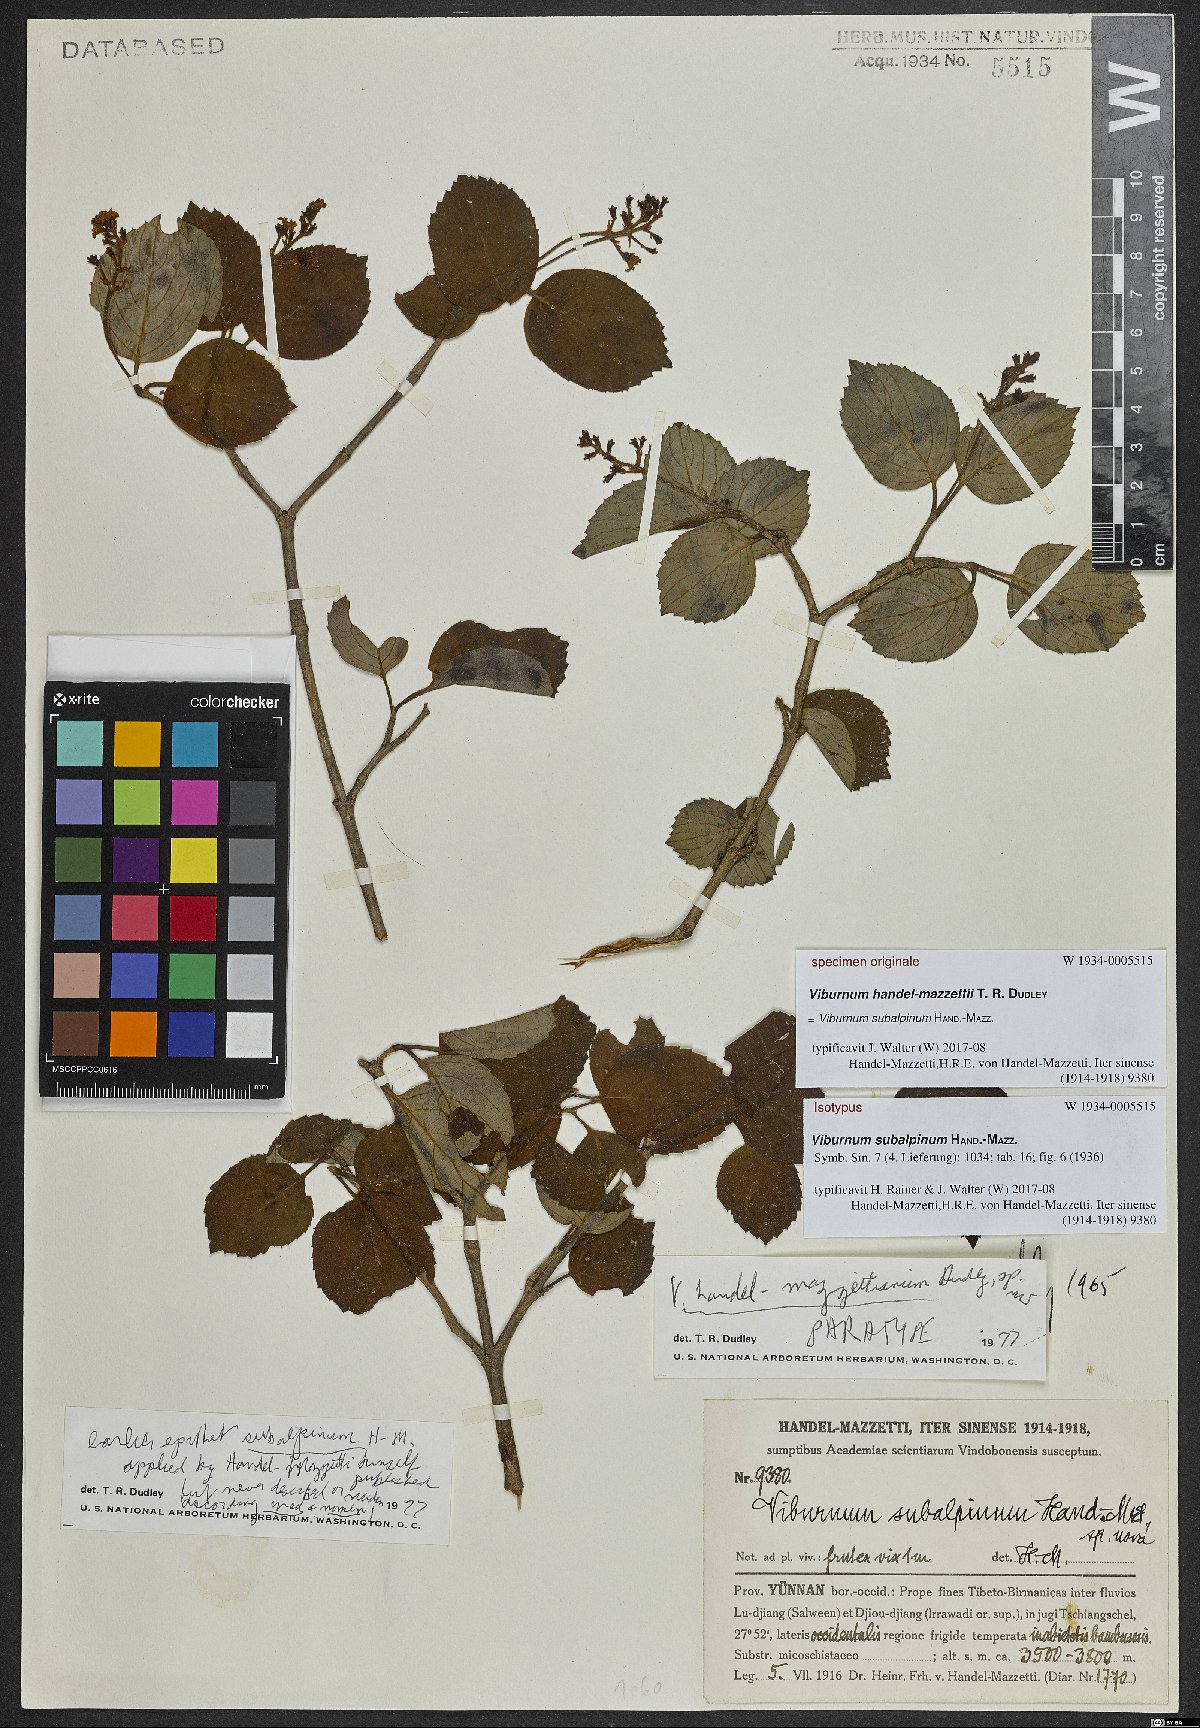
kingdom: Plantae
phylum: Tracheophyta
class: Magnoliopsida
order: Dipsacales
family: Viburnaceae
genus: Viburnum
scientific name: Viburnum subalpinum
